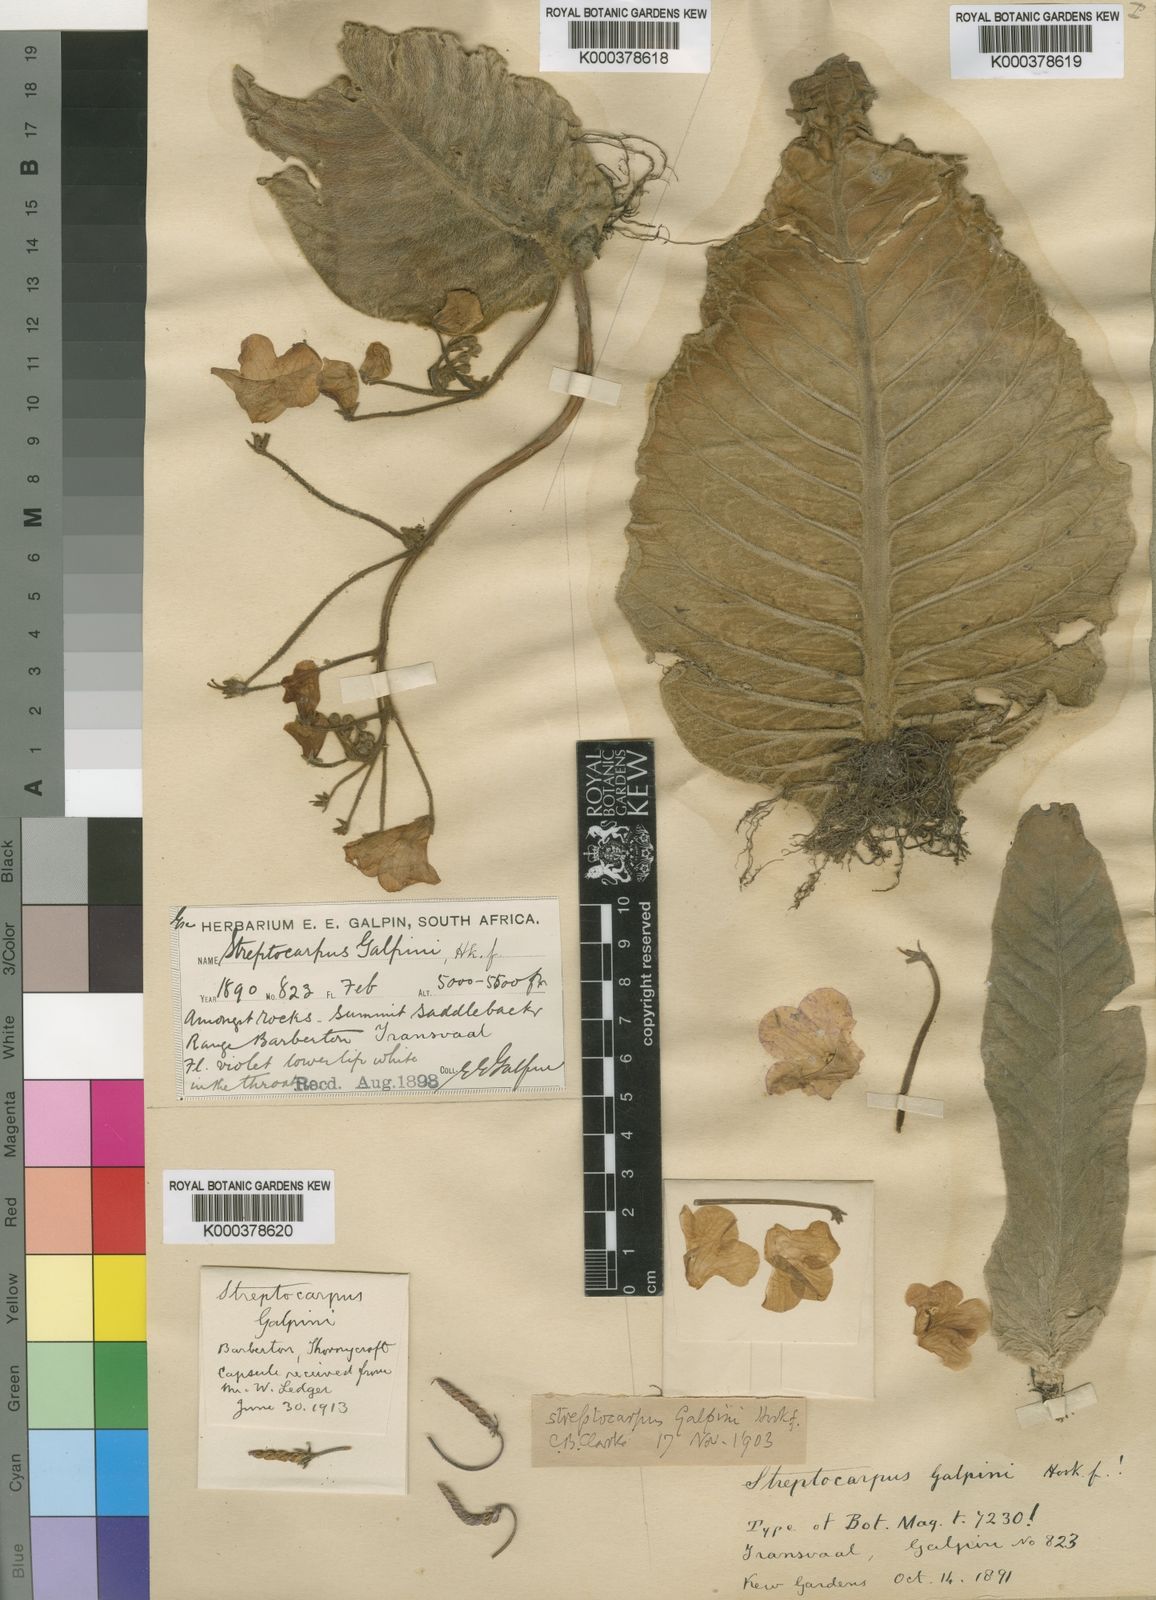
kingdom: Plantae
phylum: Tracheophyta
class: Magnoliopsida
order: Lamiales
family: Gesneriaceae
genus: Streptocarpus
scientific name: Streptocarpus galpinii
